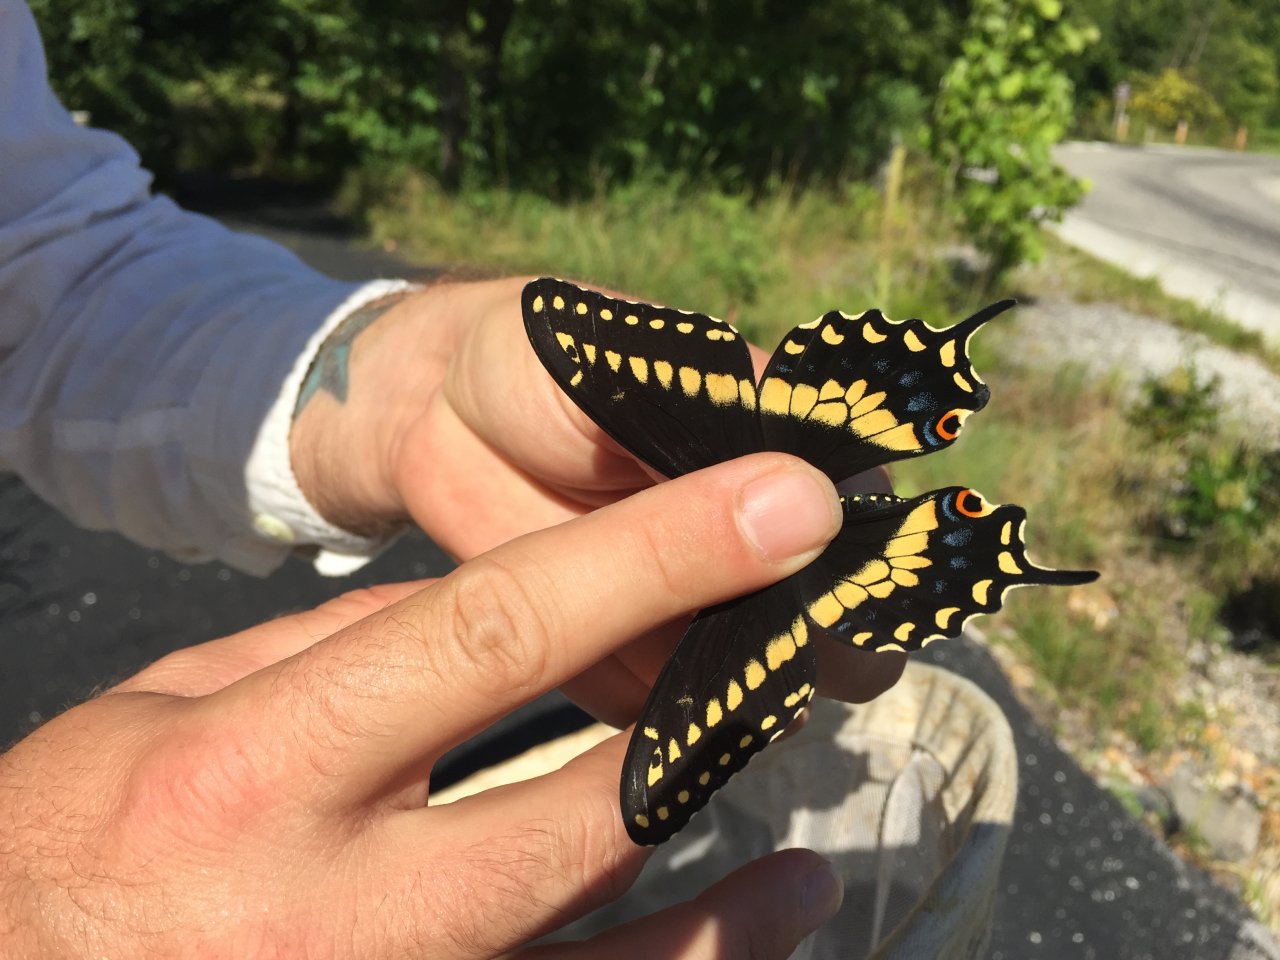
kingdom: Animalia
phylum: Arthropoda
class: Insecta
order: Lepidoptera
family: Papilionidae
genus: Papilio
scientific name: Papilio polyxenes
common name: Black Swallowtail
